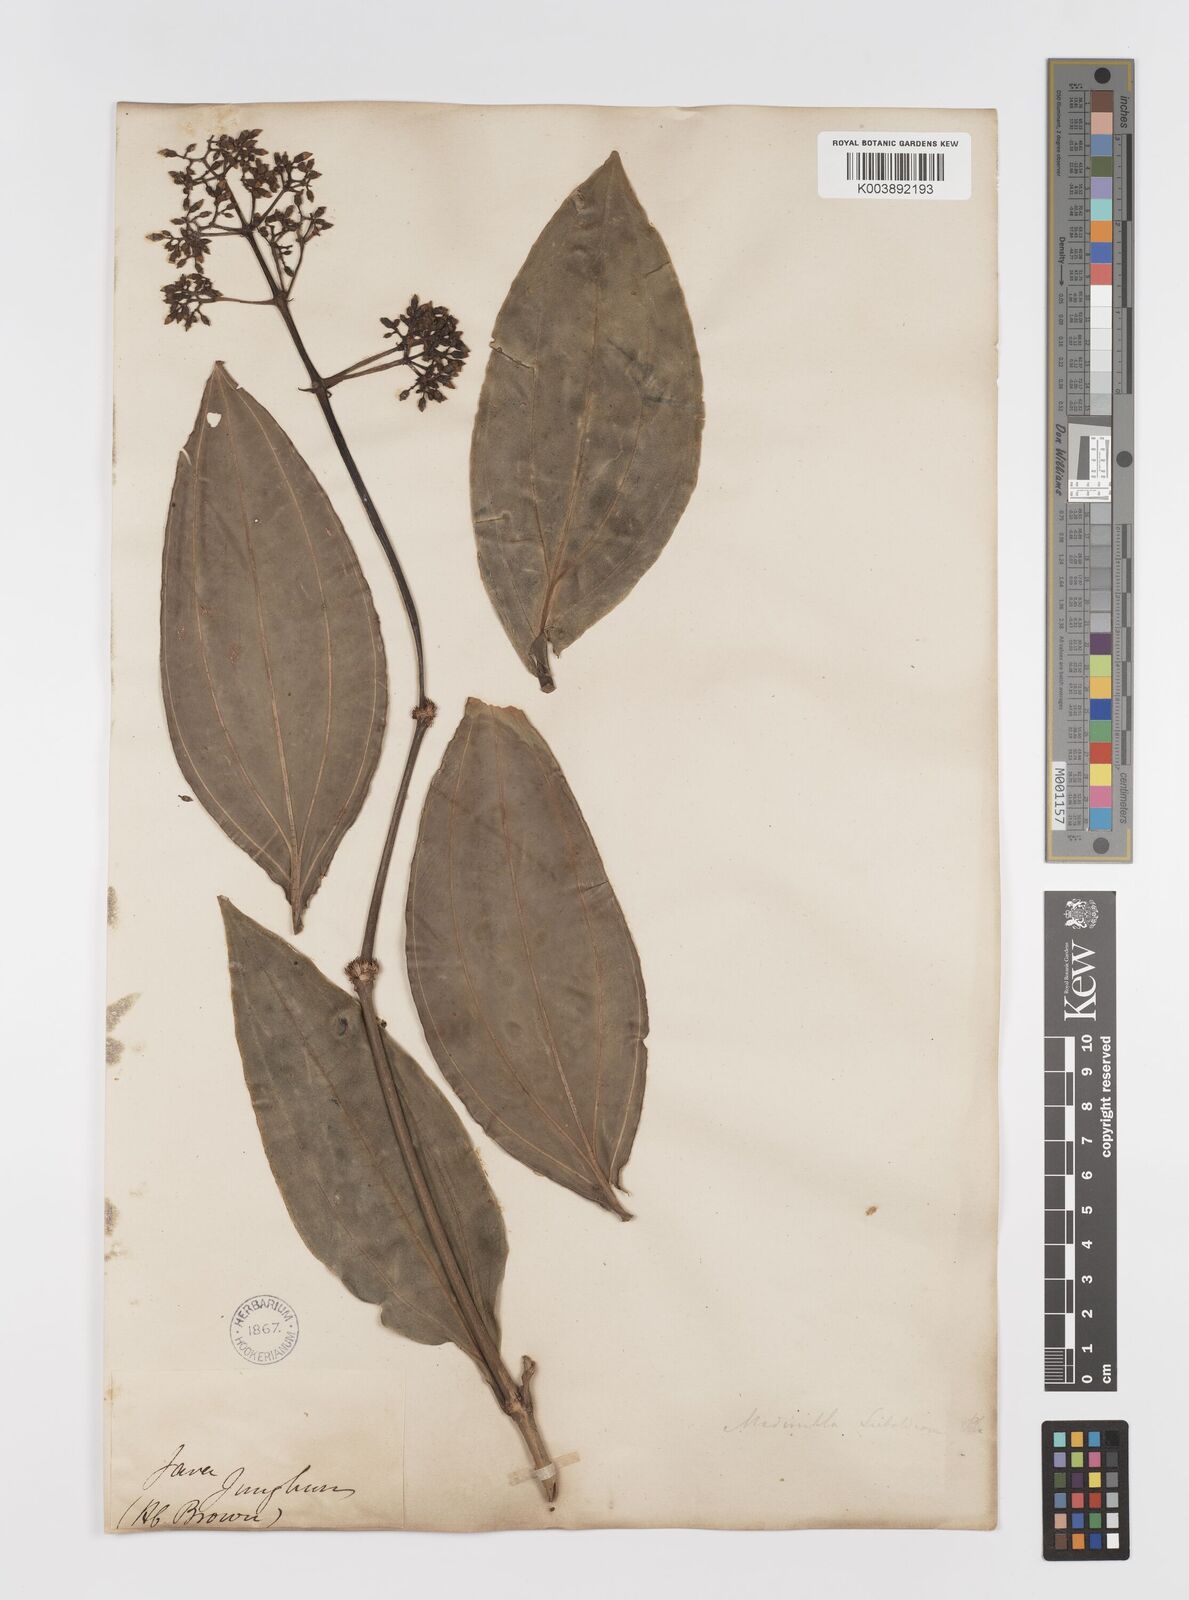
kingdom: Plantae
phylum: Tracheophyta
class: Magnoliopsida
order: Myrtales
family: Melastomataceae
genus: Medinilla
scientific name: Medinilla intermedia
